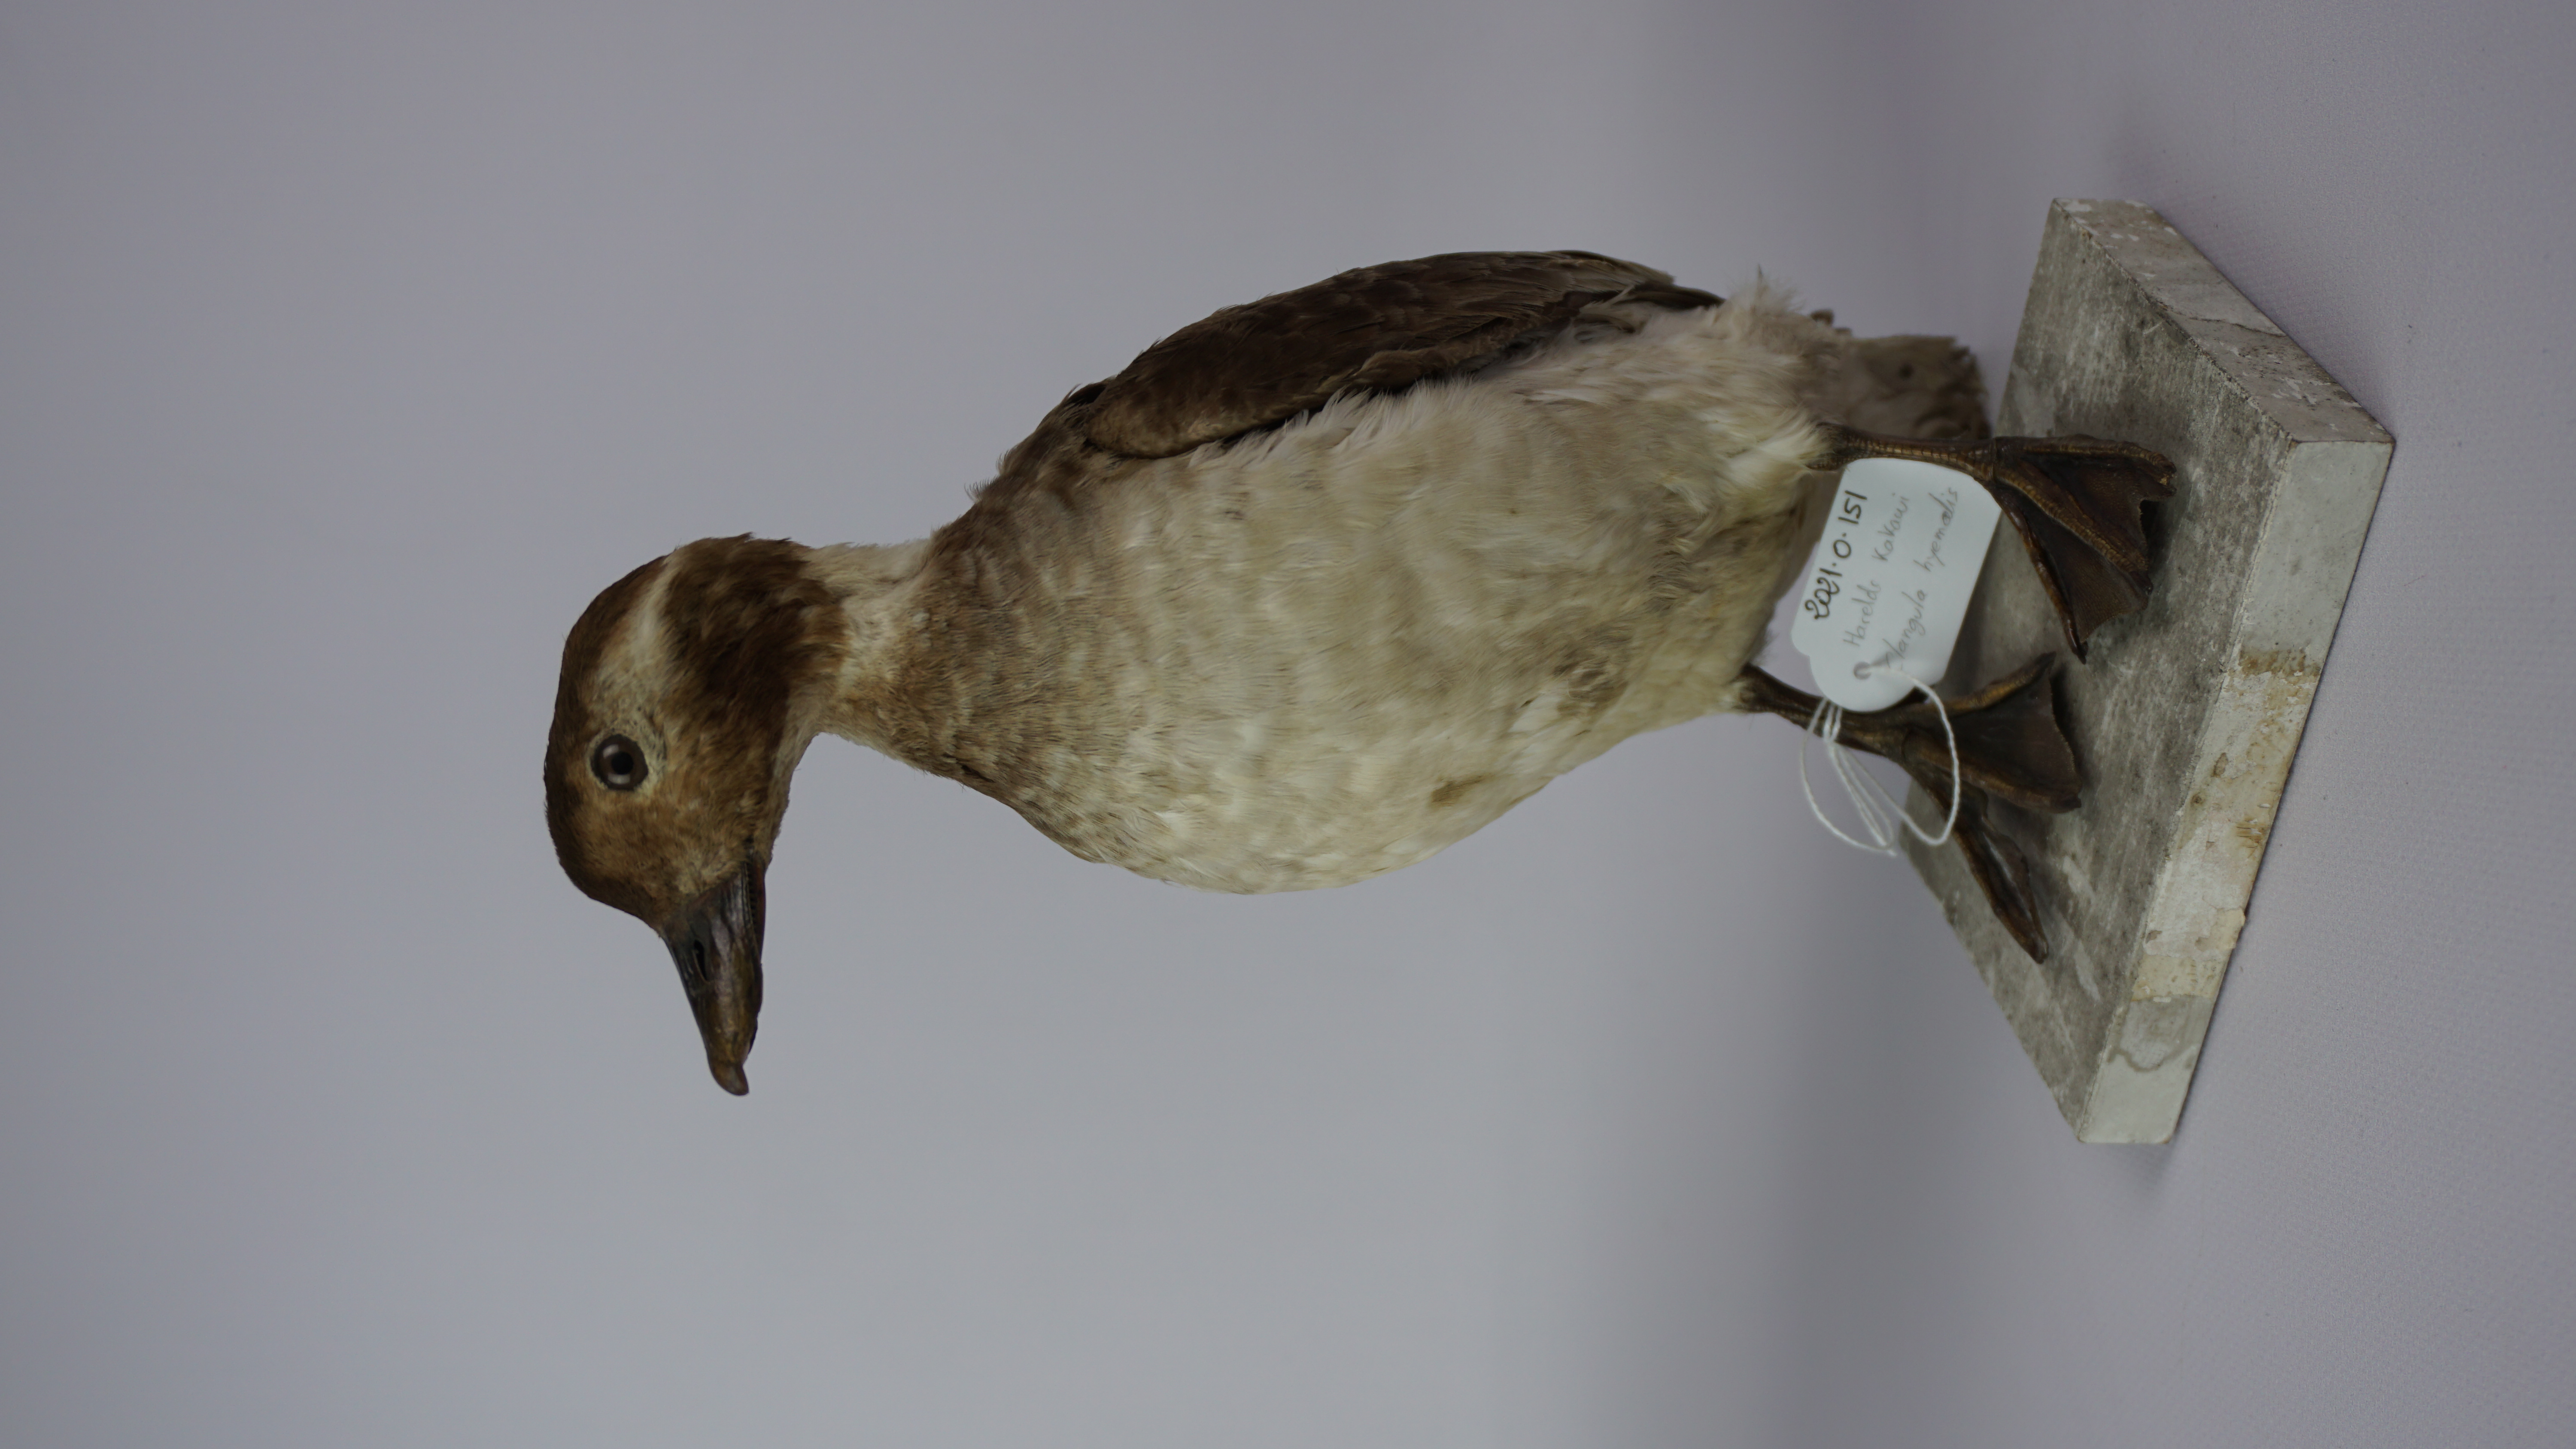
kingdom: Animalia
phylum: Chordata
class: Aves
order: Anseriformes
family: Anatidae
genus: Clangula
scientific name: Clangula hyemalis
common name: Long-tailed duck
